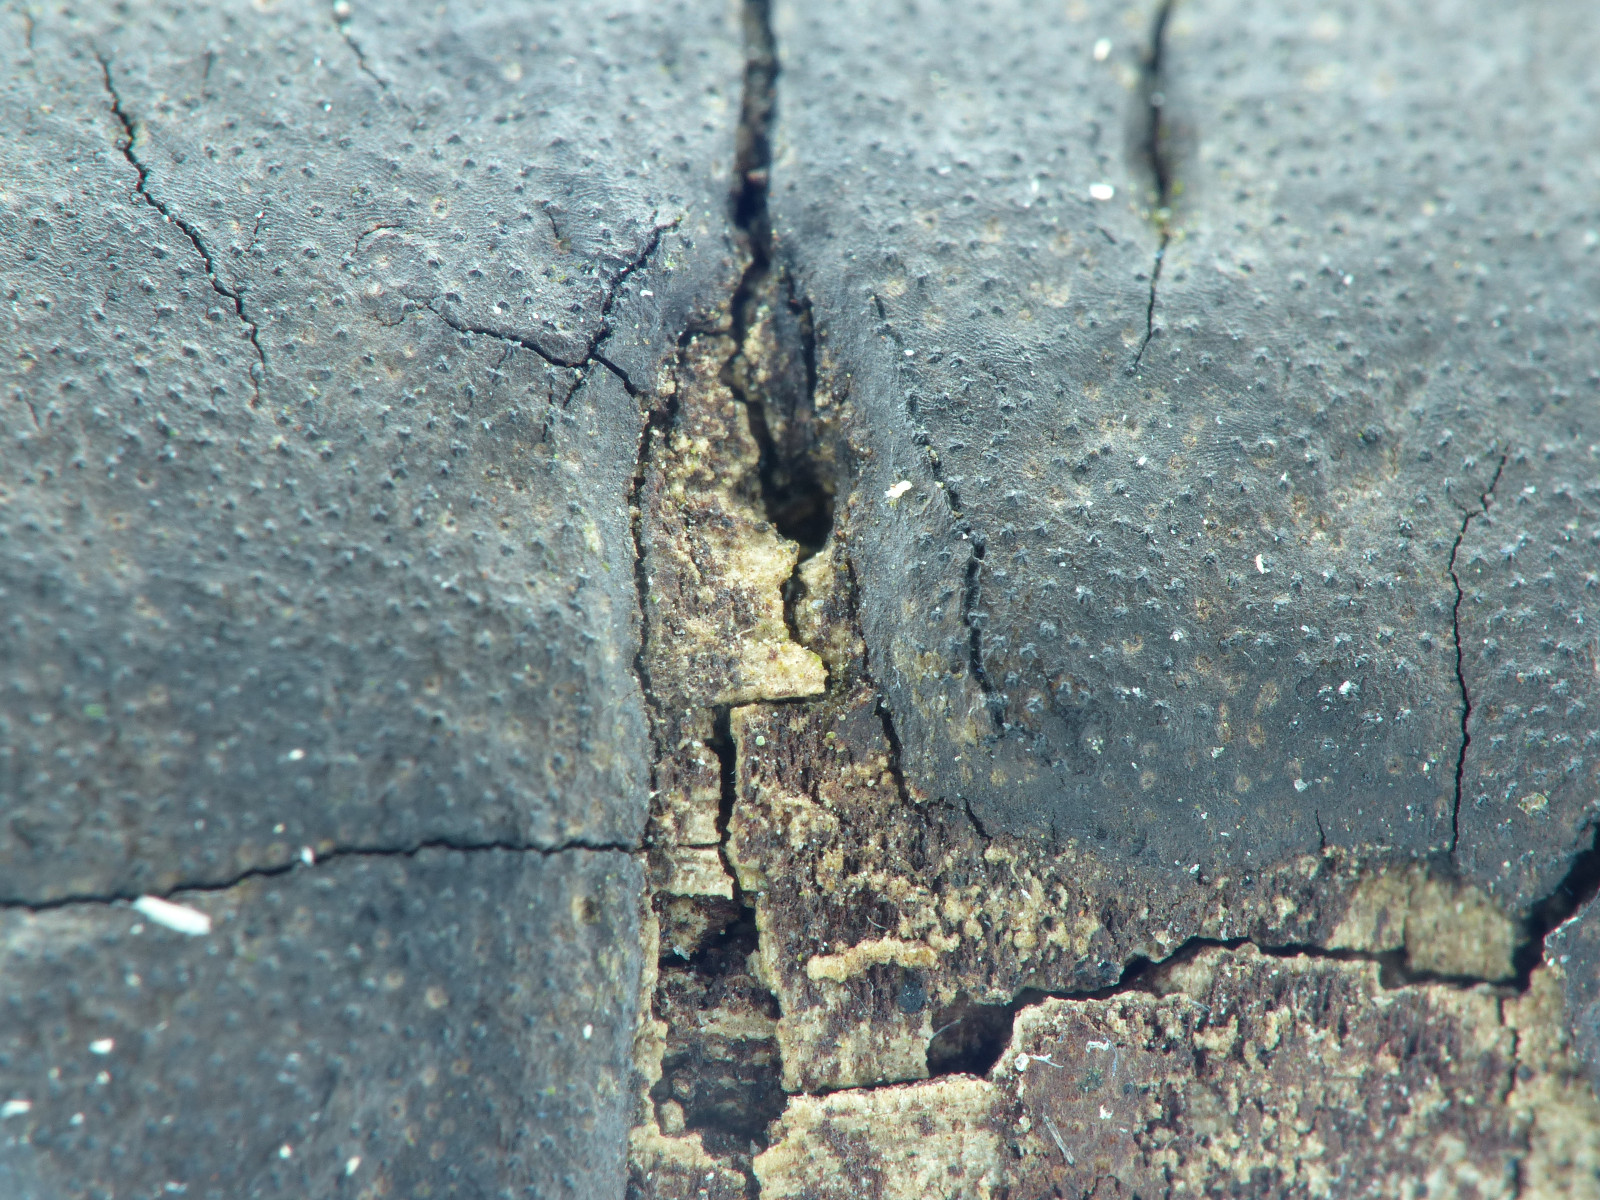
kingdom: Fungi
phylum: Ascomycota
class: Sordariomycetes
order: Xylariales
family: Diatrypaceae
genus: Diatrype
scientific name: Diatrype
